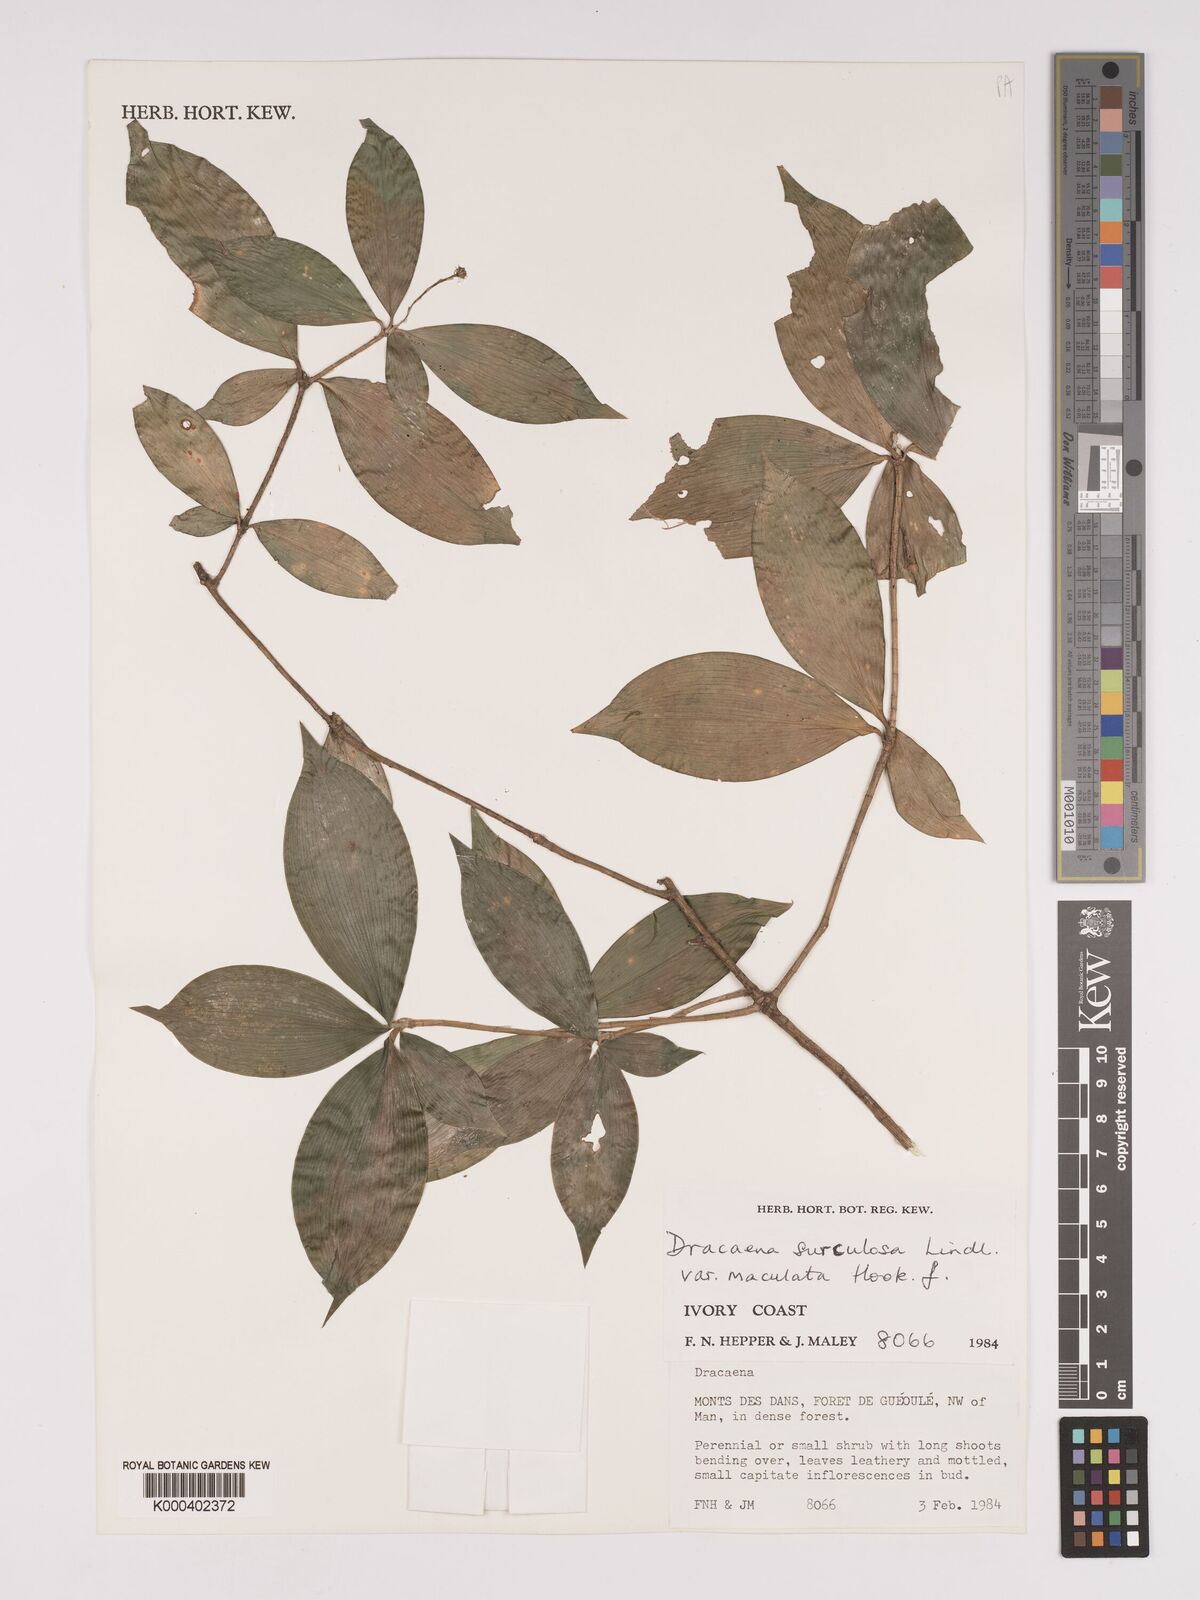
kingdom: Plantae
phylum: Tracheophyta
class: Liliopsida
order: Asparagales
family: Asparagaceae
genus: Dracaena
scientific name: Dracaena surculosa
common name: Spotted dracaena
